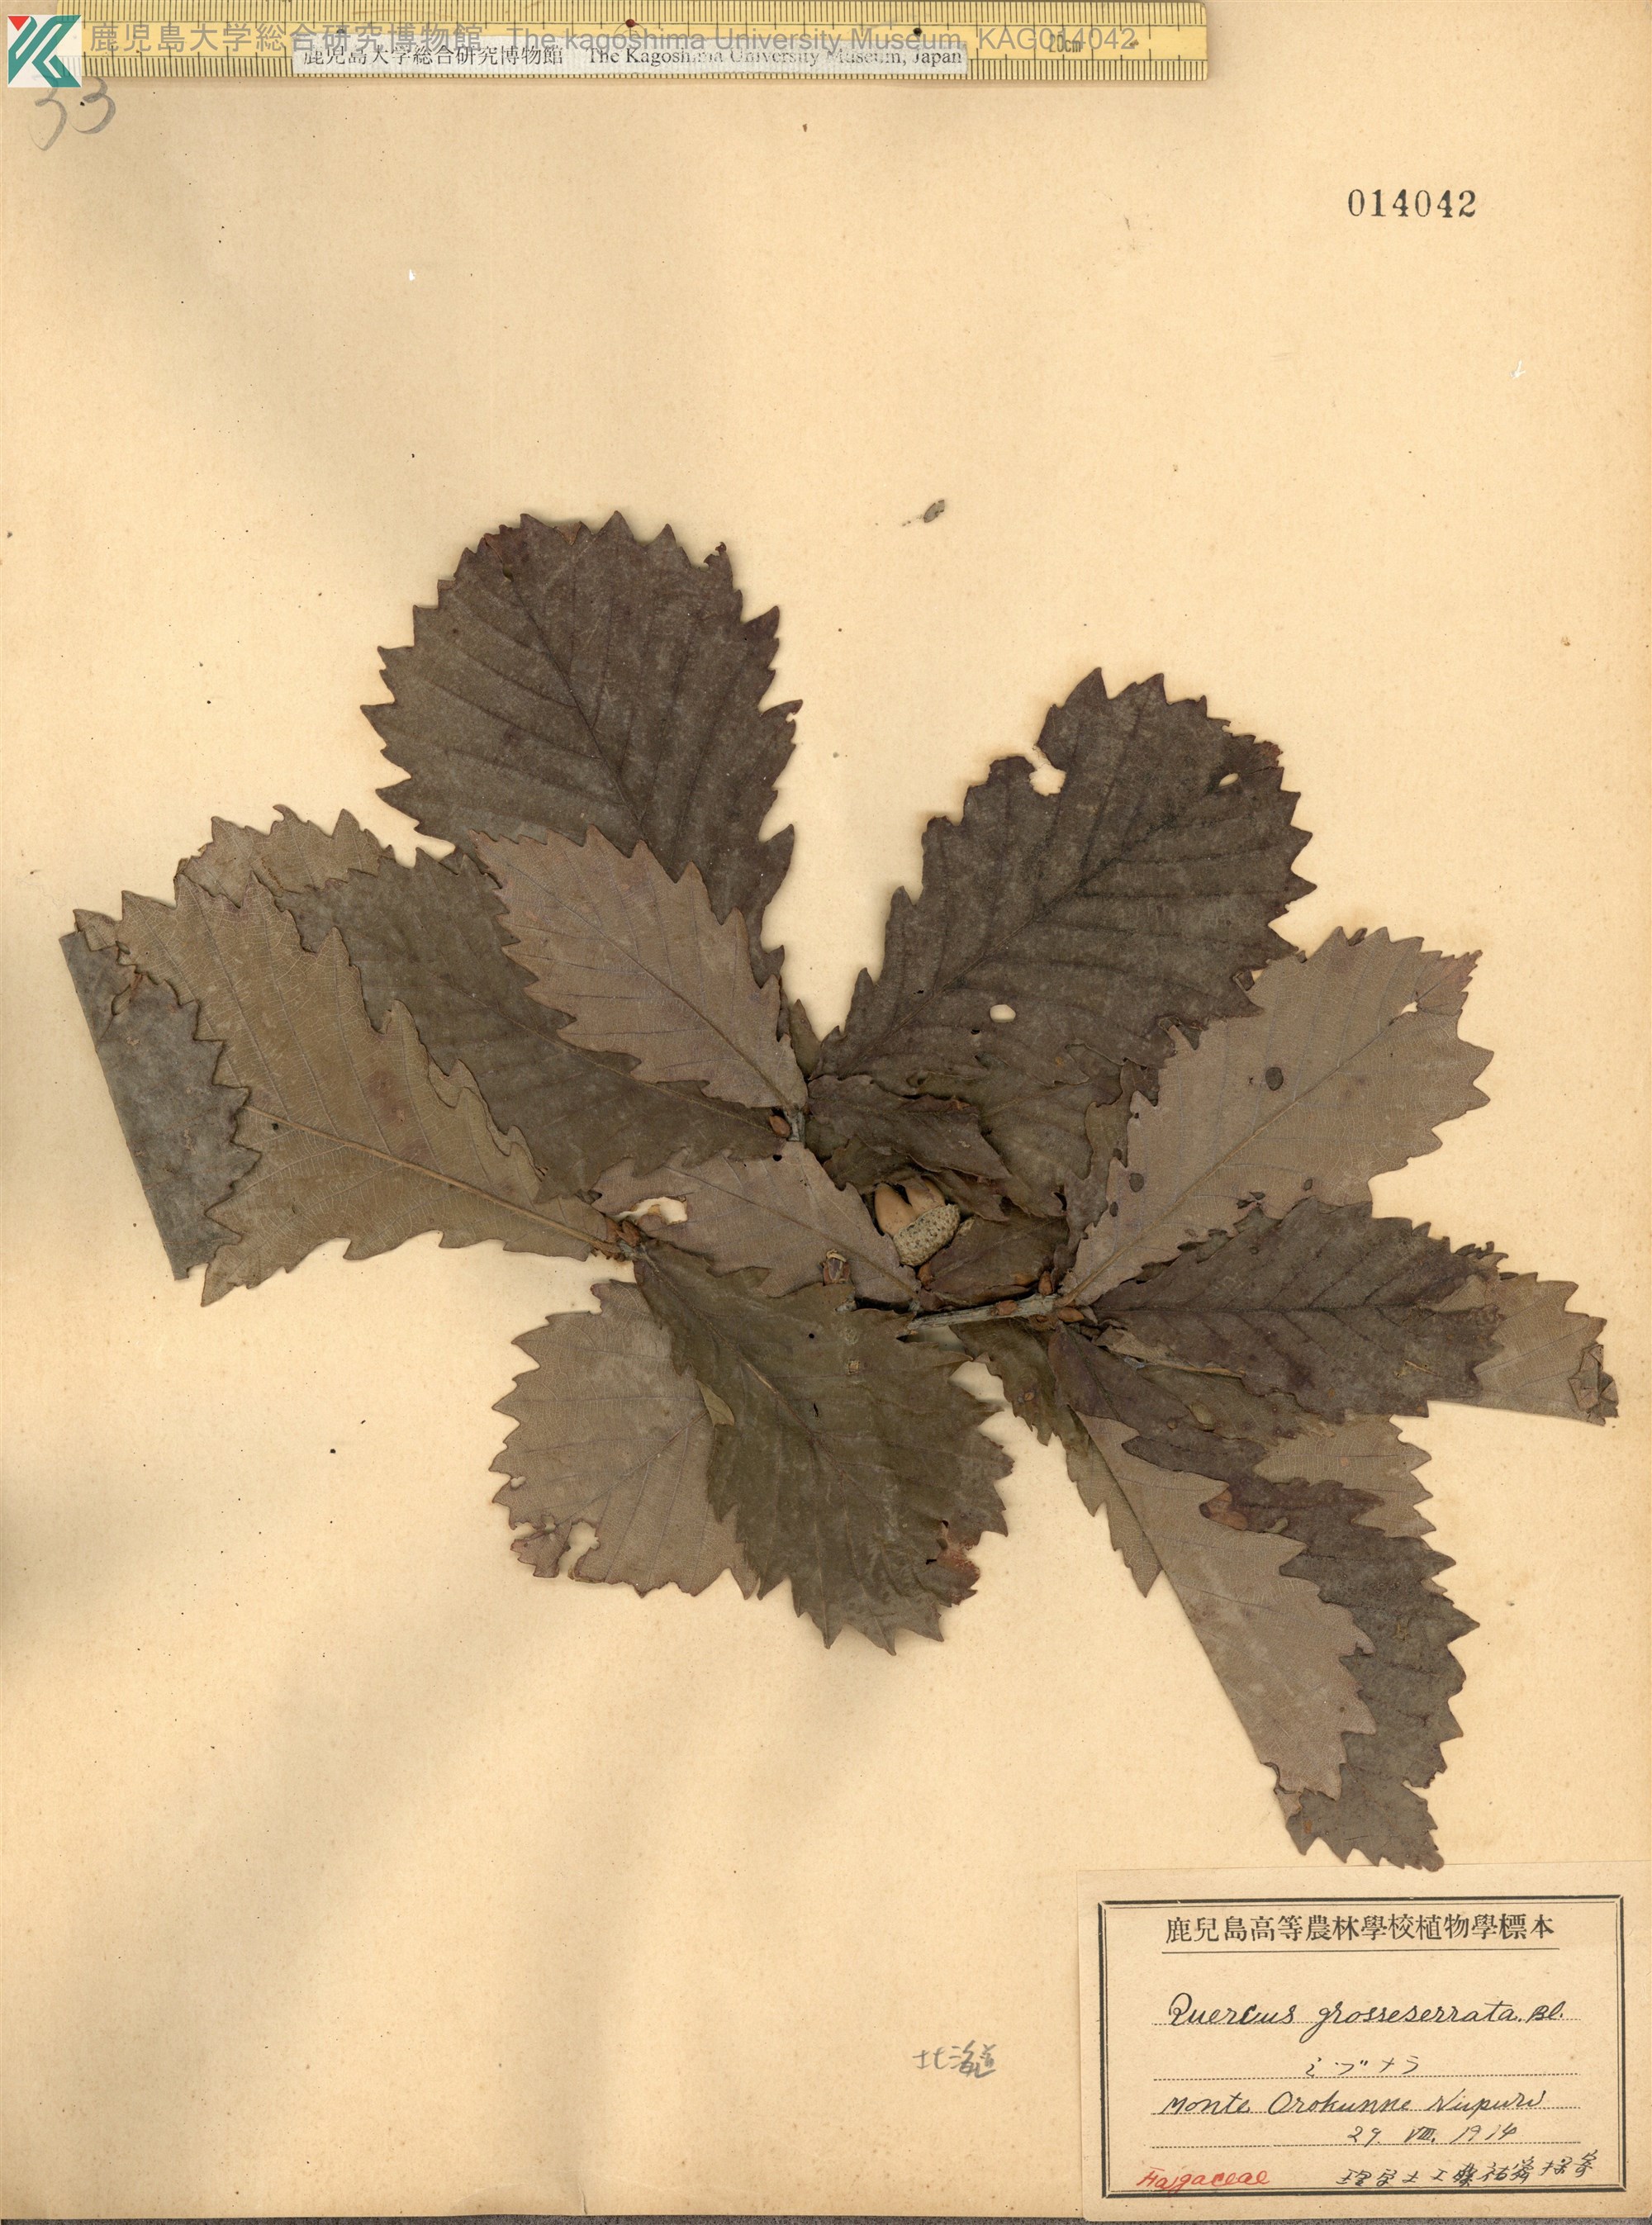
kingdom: Plantae
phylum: Tracheophyta
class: Magnoliopsida
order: Fagales
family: Fagaceae
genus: Quercus
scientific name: Quercus crispula
